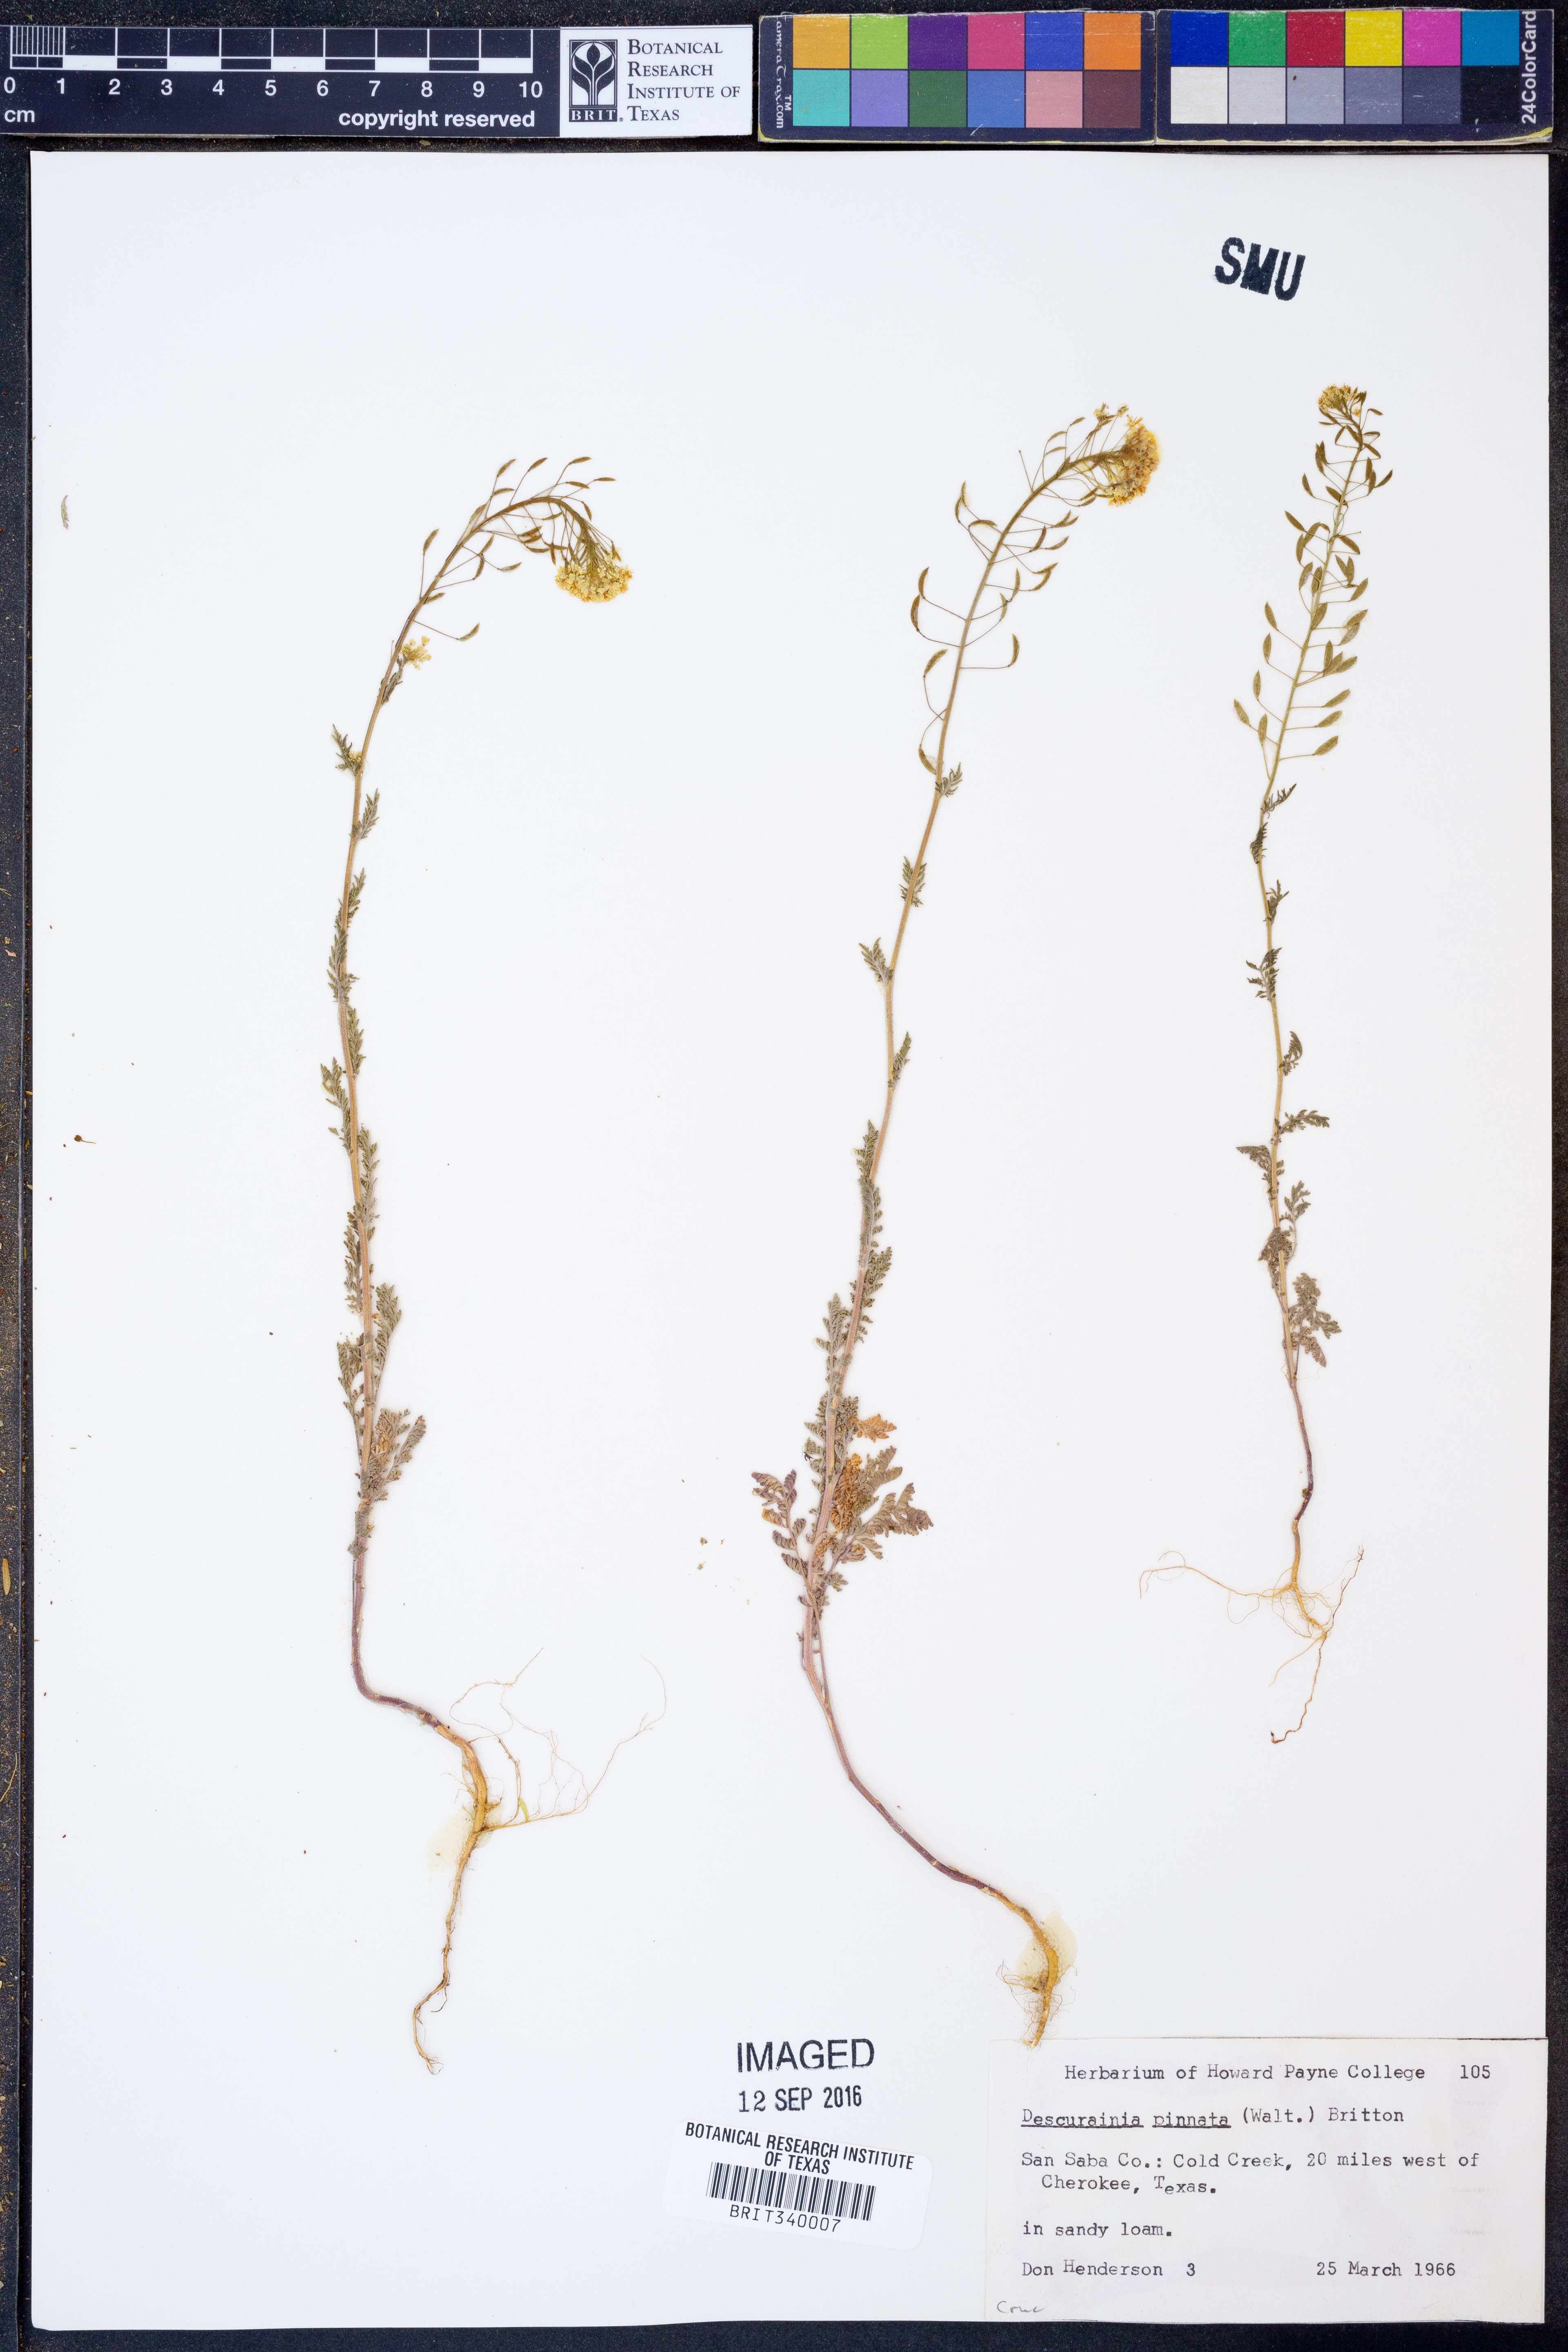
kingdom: Plantae
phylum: Tracheophyta
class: Magnoliopsida
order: Brassicales
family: Brassicaceae
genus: Descurainia
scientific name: Descurainia pinnata
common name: Western tansy mustard
